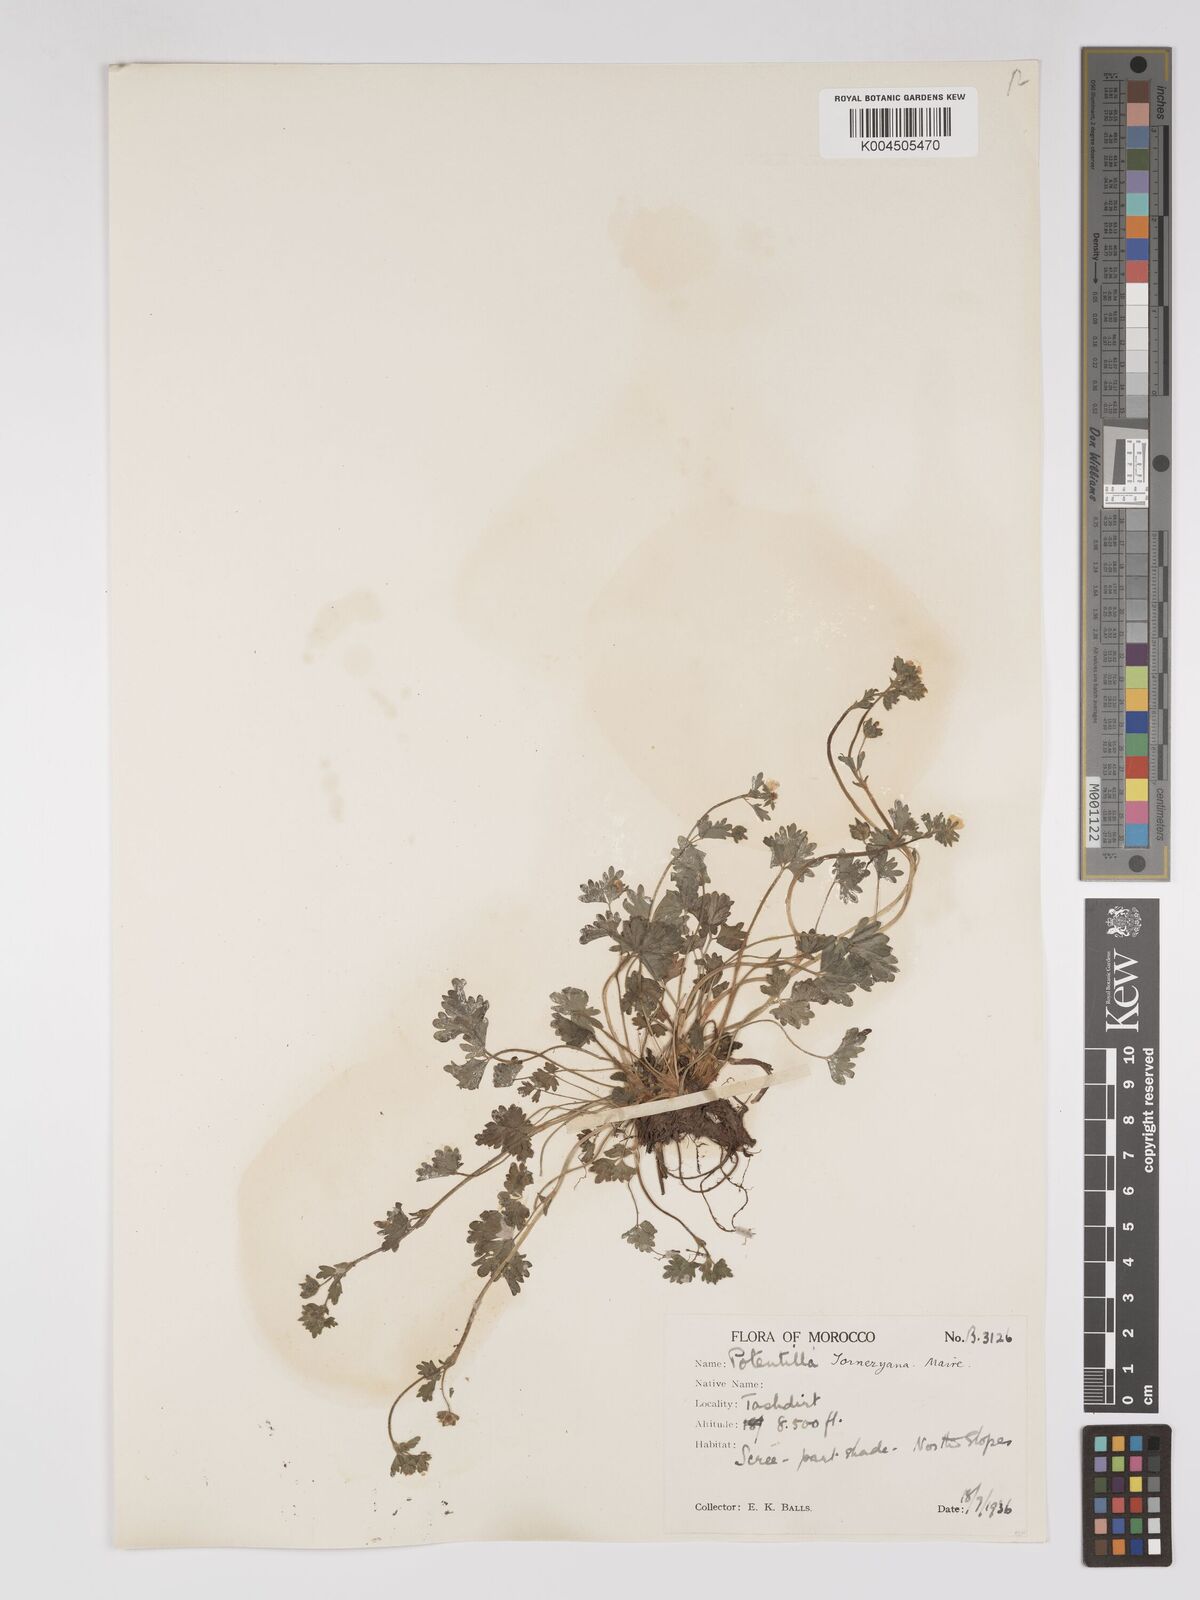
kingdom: Plantae
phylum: Tracheophyta
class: Magnoliopsida
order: Rosales
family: Rosaceae
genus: Potentilla
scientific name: Potentilla tornezyana
